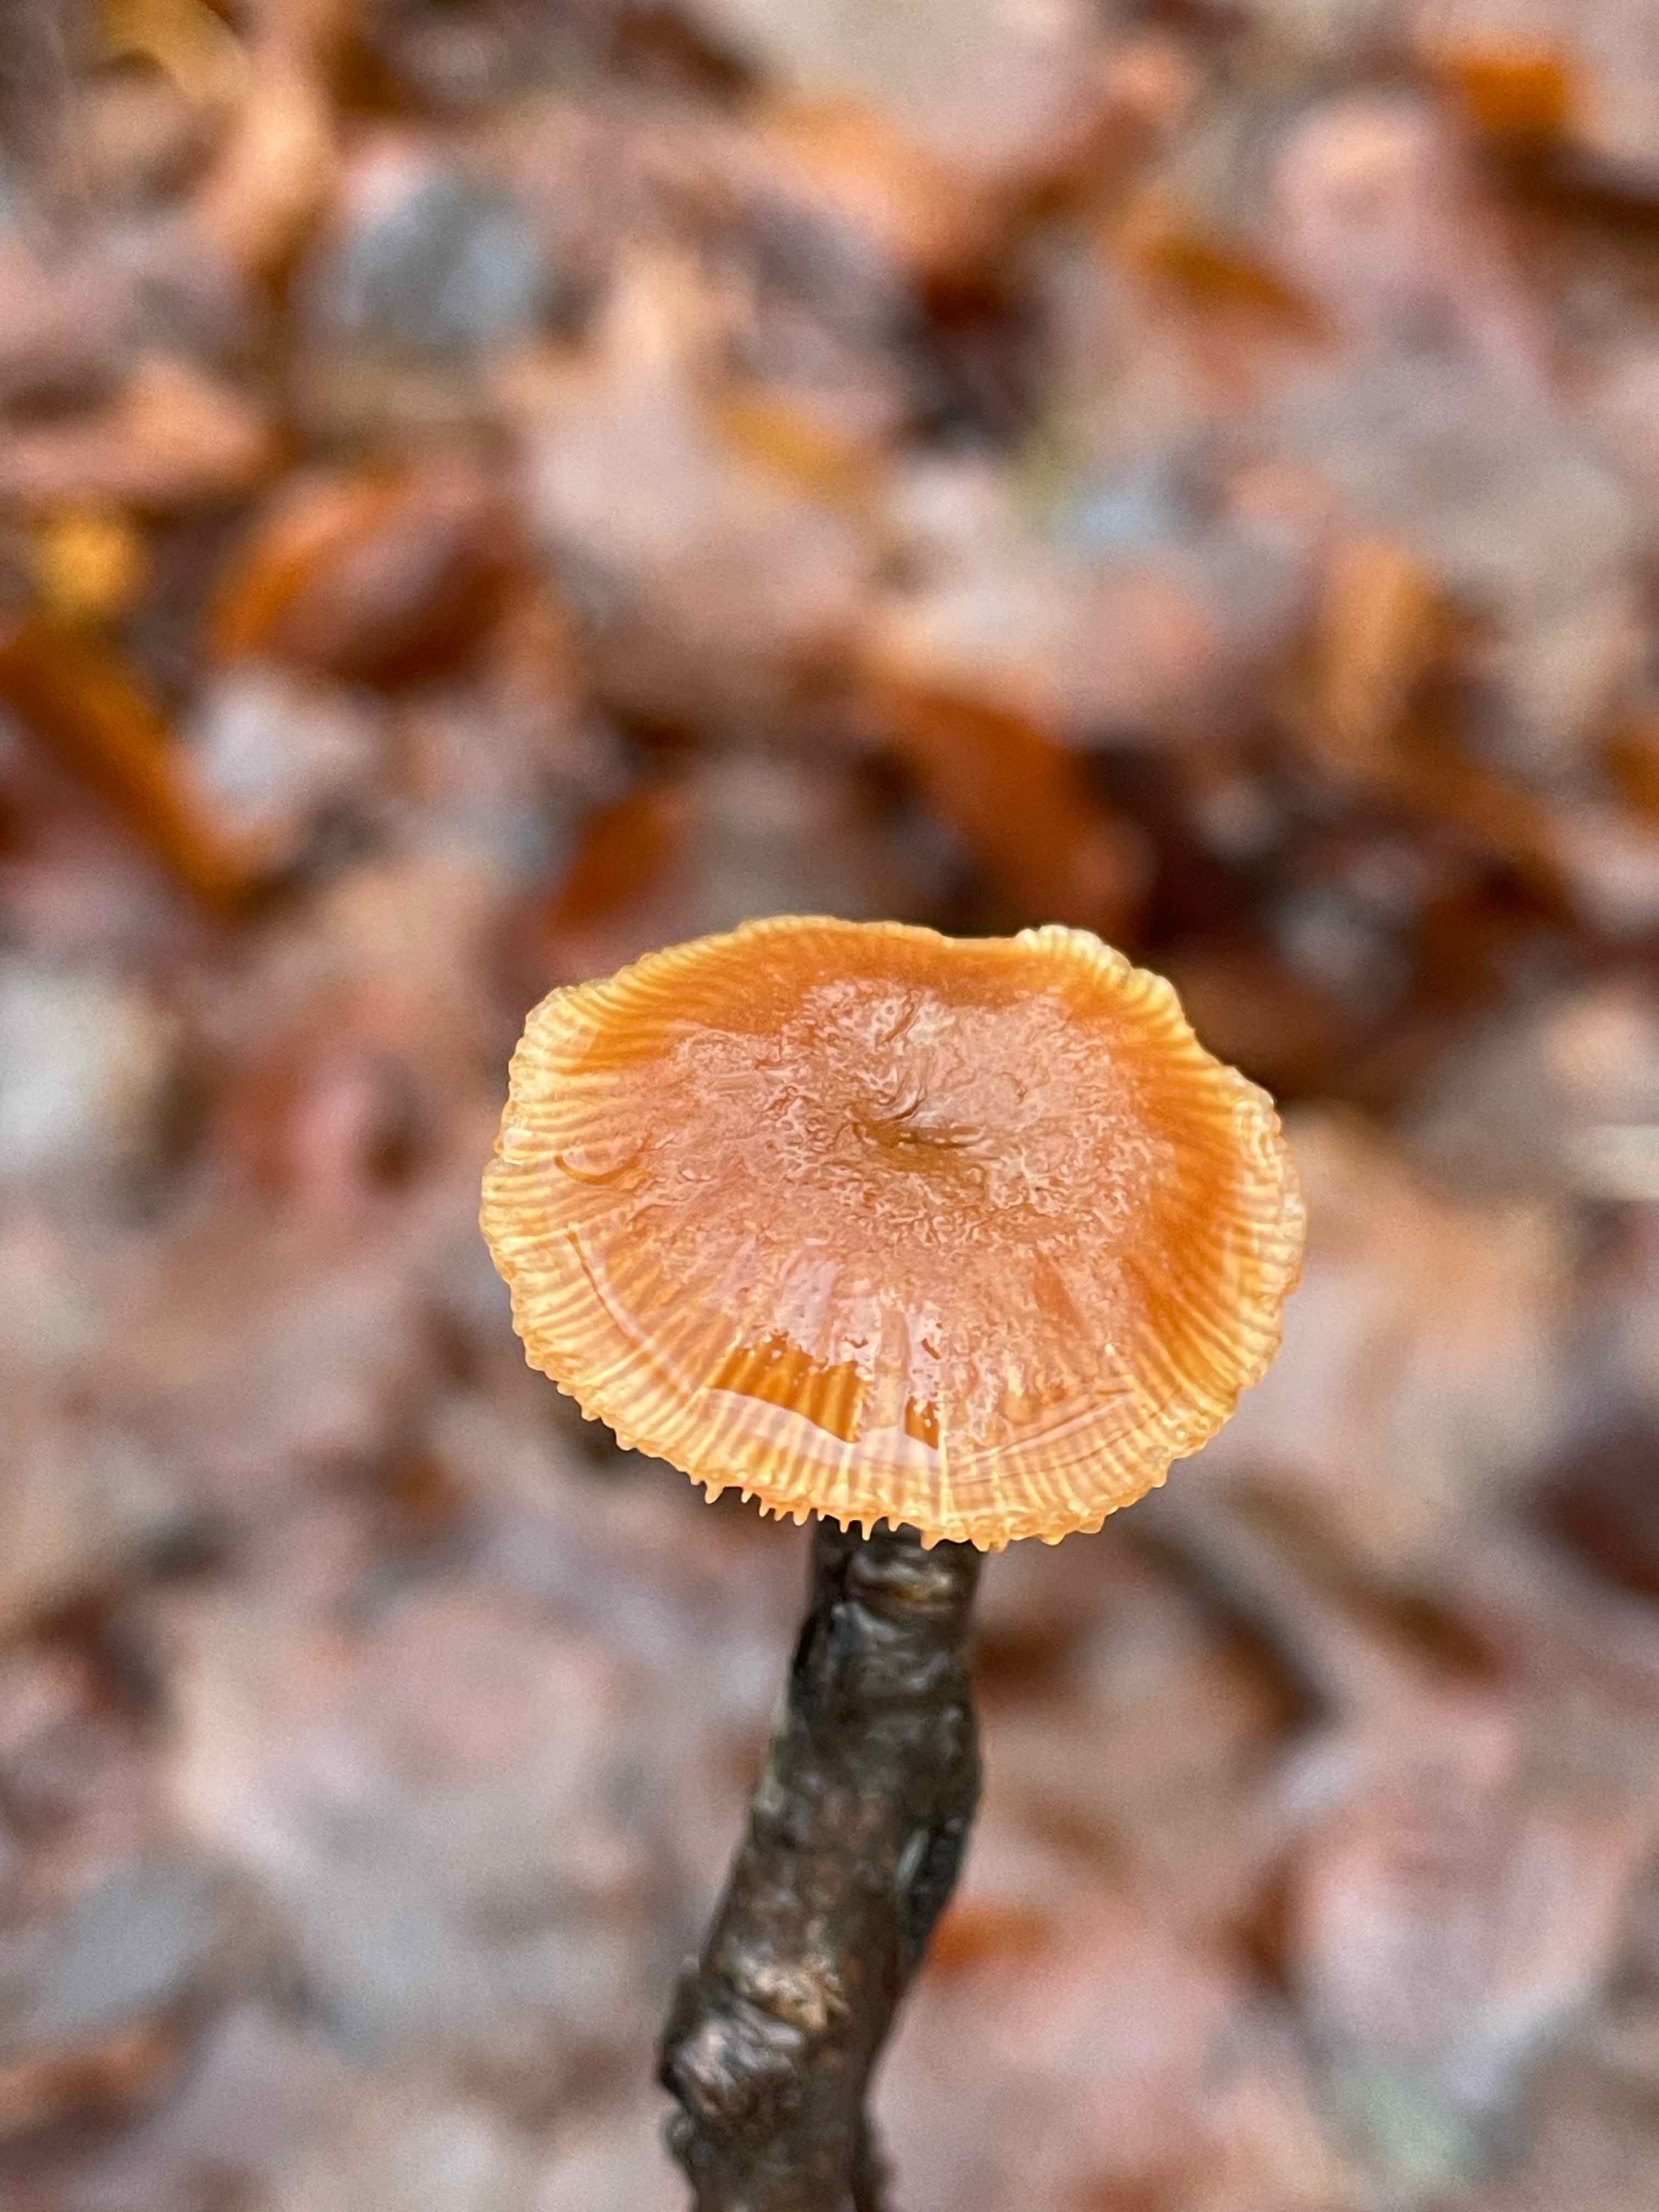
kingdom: Fungi
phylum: Basidiomycota
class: Agaricomycetes
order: Agaricales
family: Tubariaceae
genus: Tubaria
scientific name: Tubaria furfuracea
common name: kliddet fnughat
